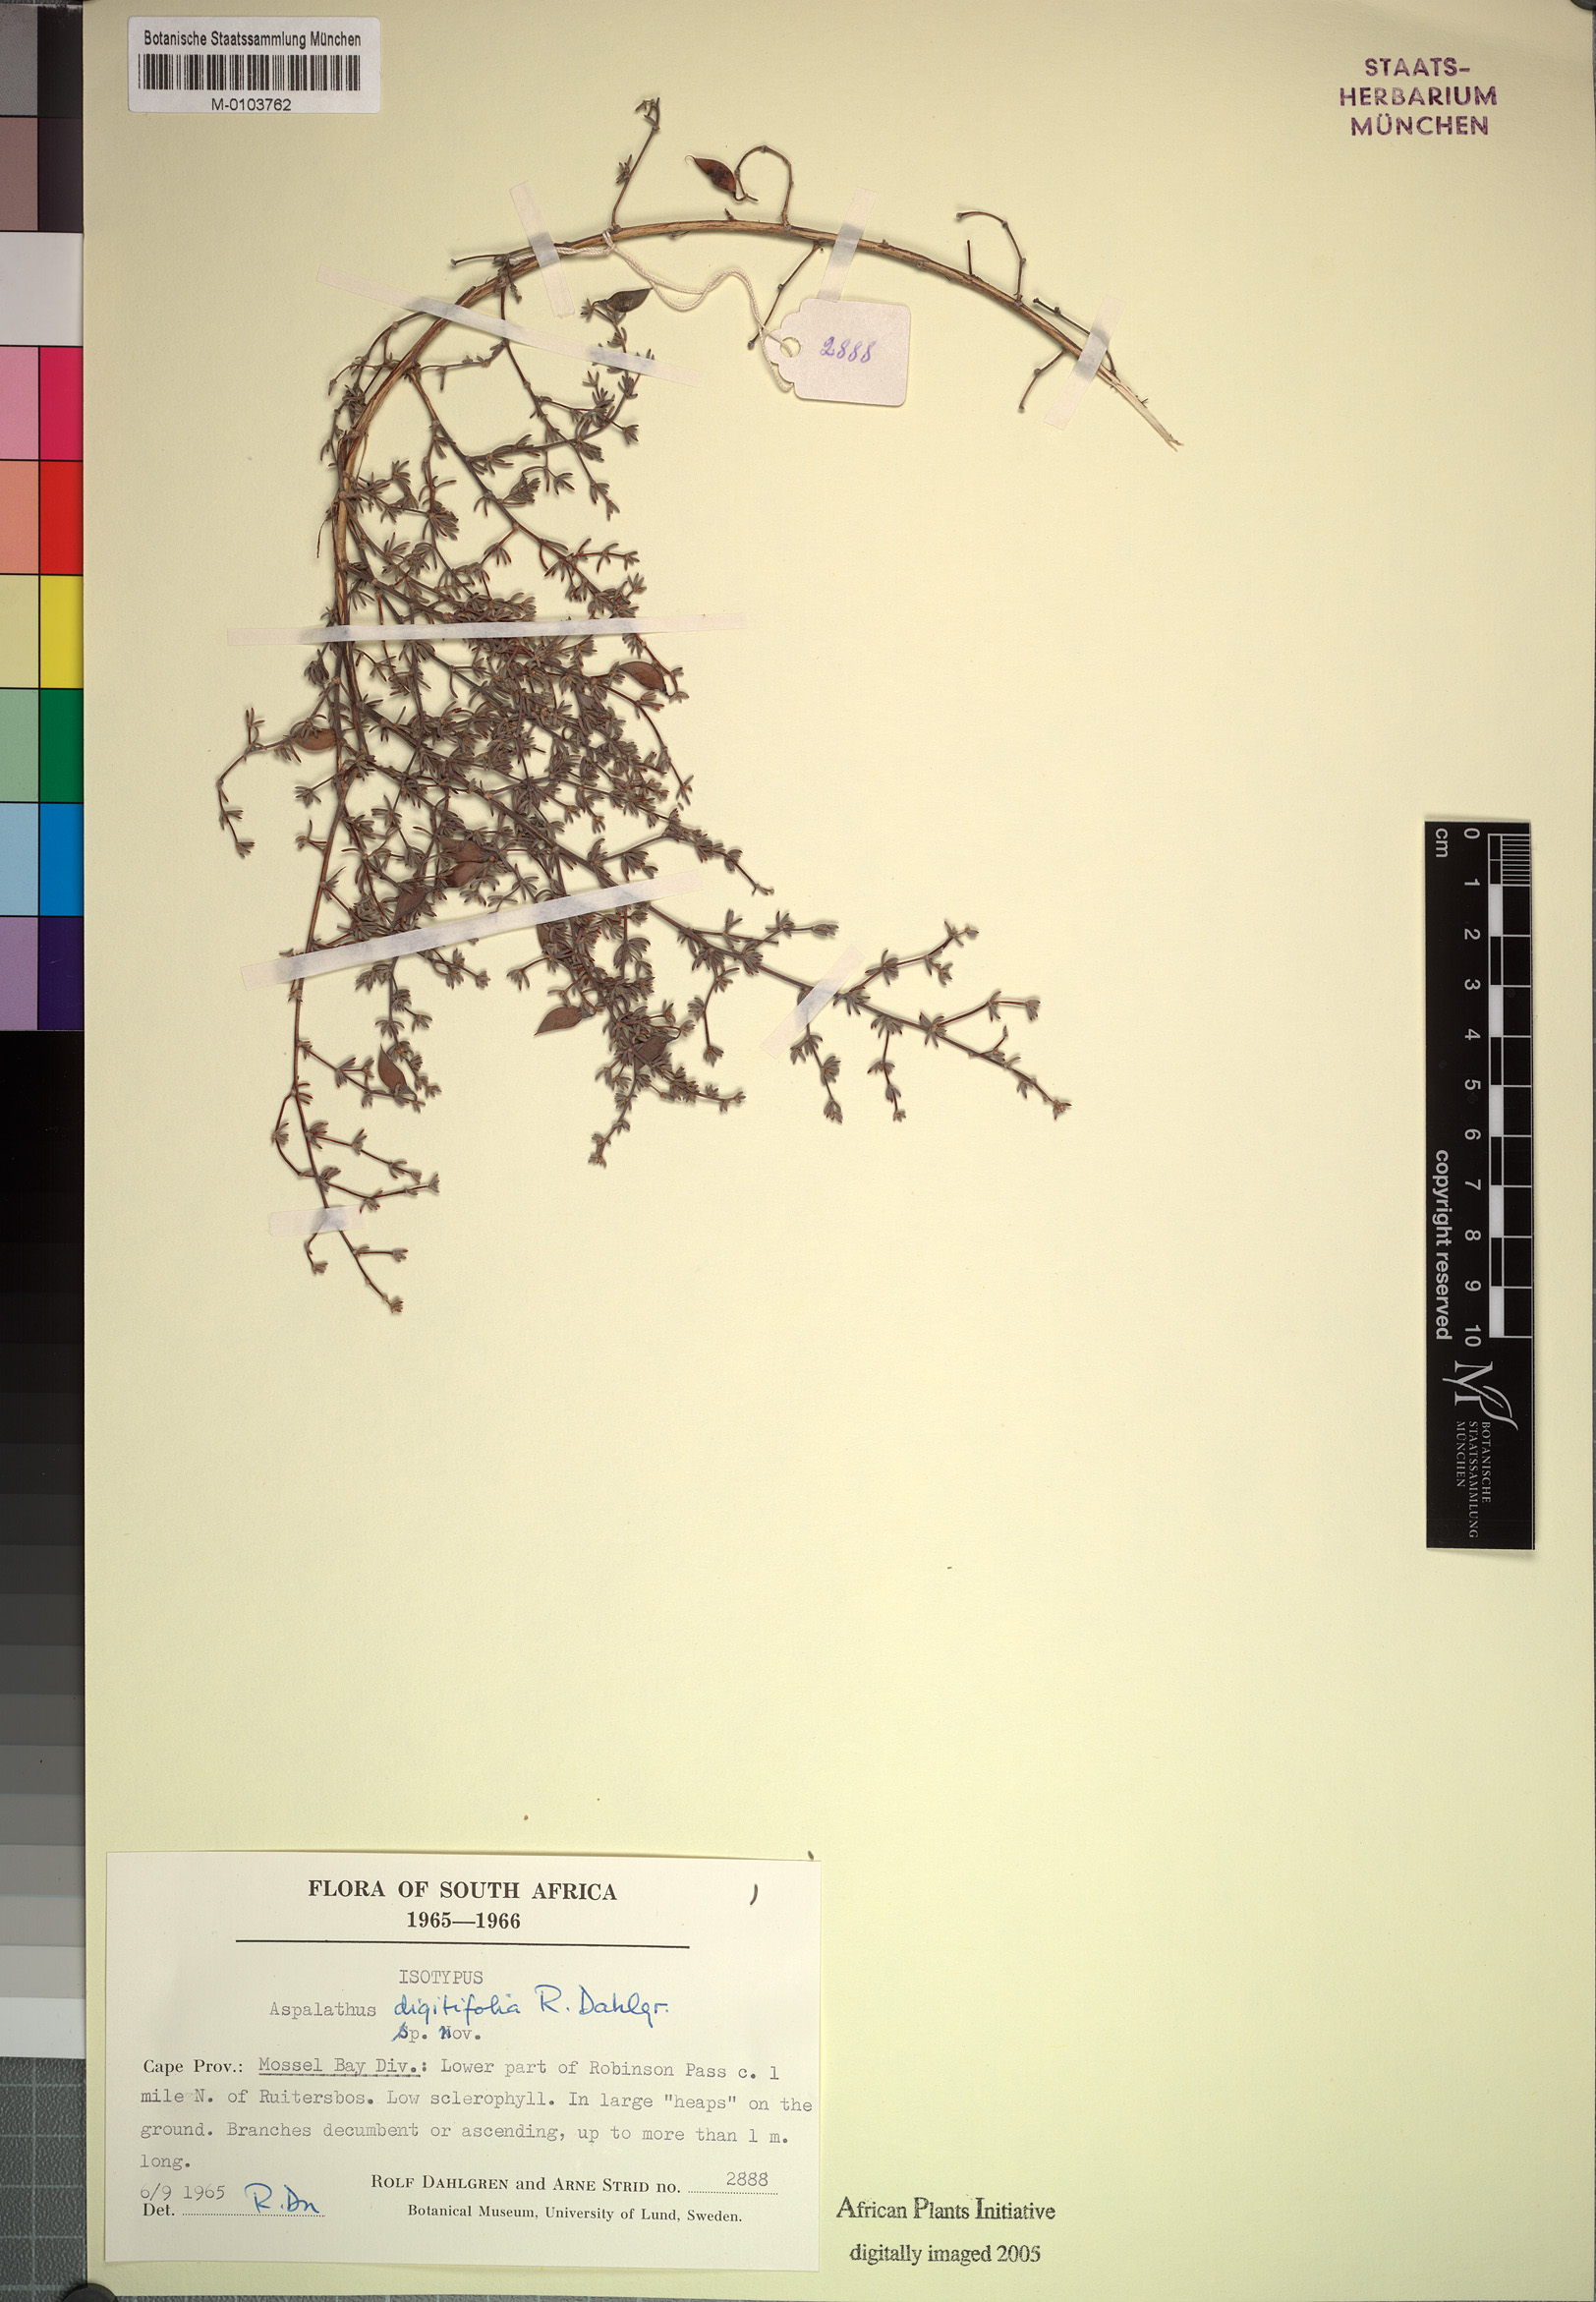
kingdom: Plantae
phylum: Tracheophyta
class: Magnoliopsida
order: Fabales
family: Fabaceae
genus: Aspalathus
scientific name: Aspalathus digitifolia
